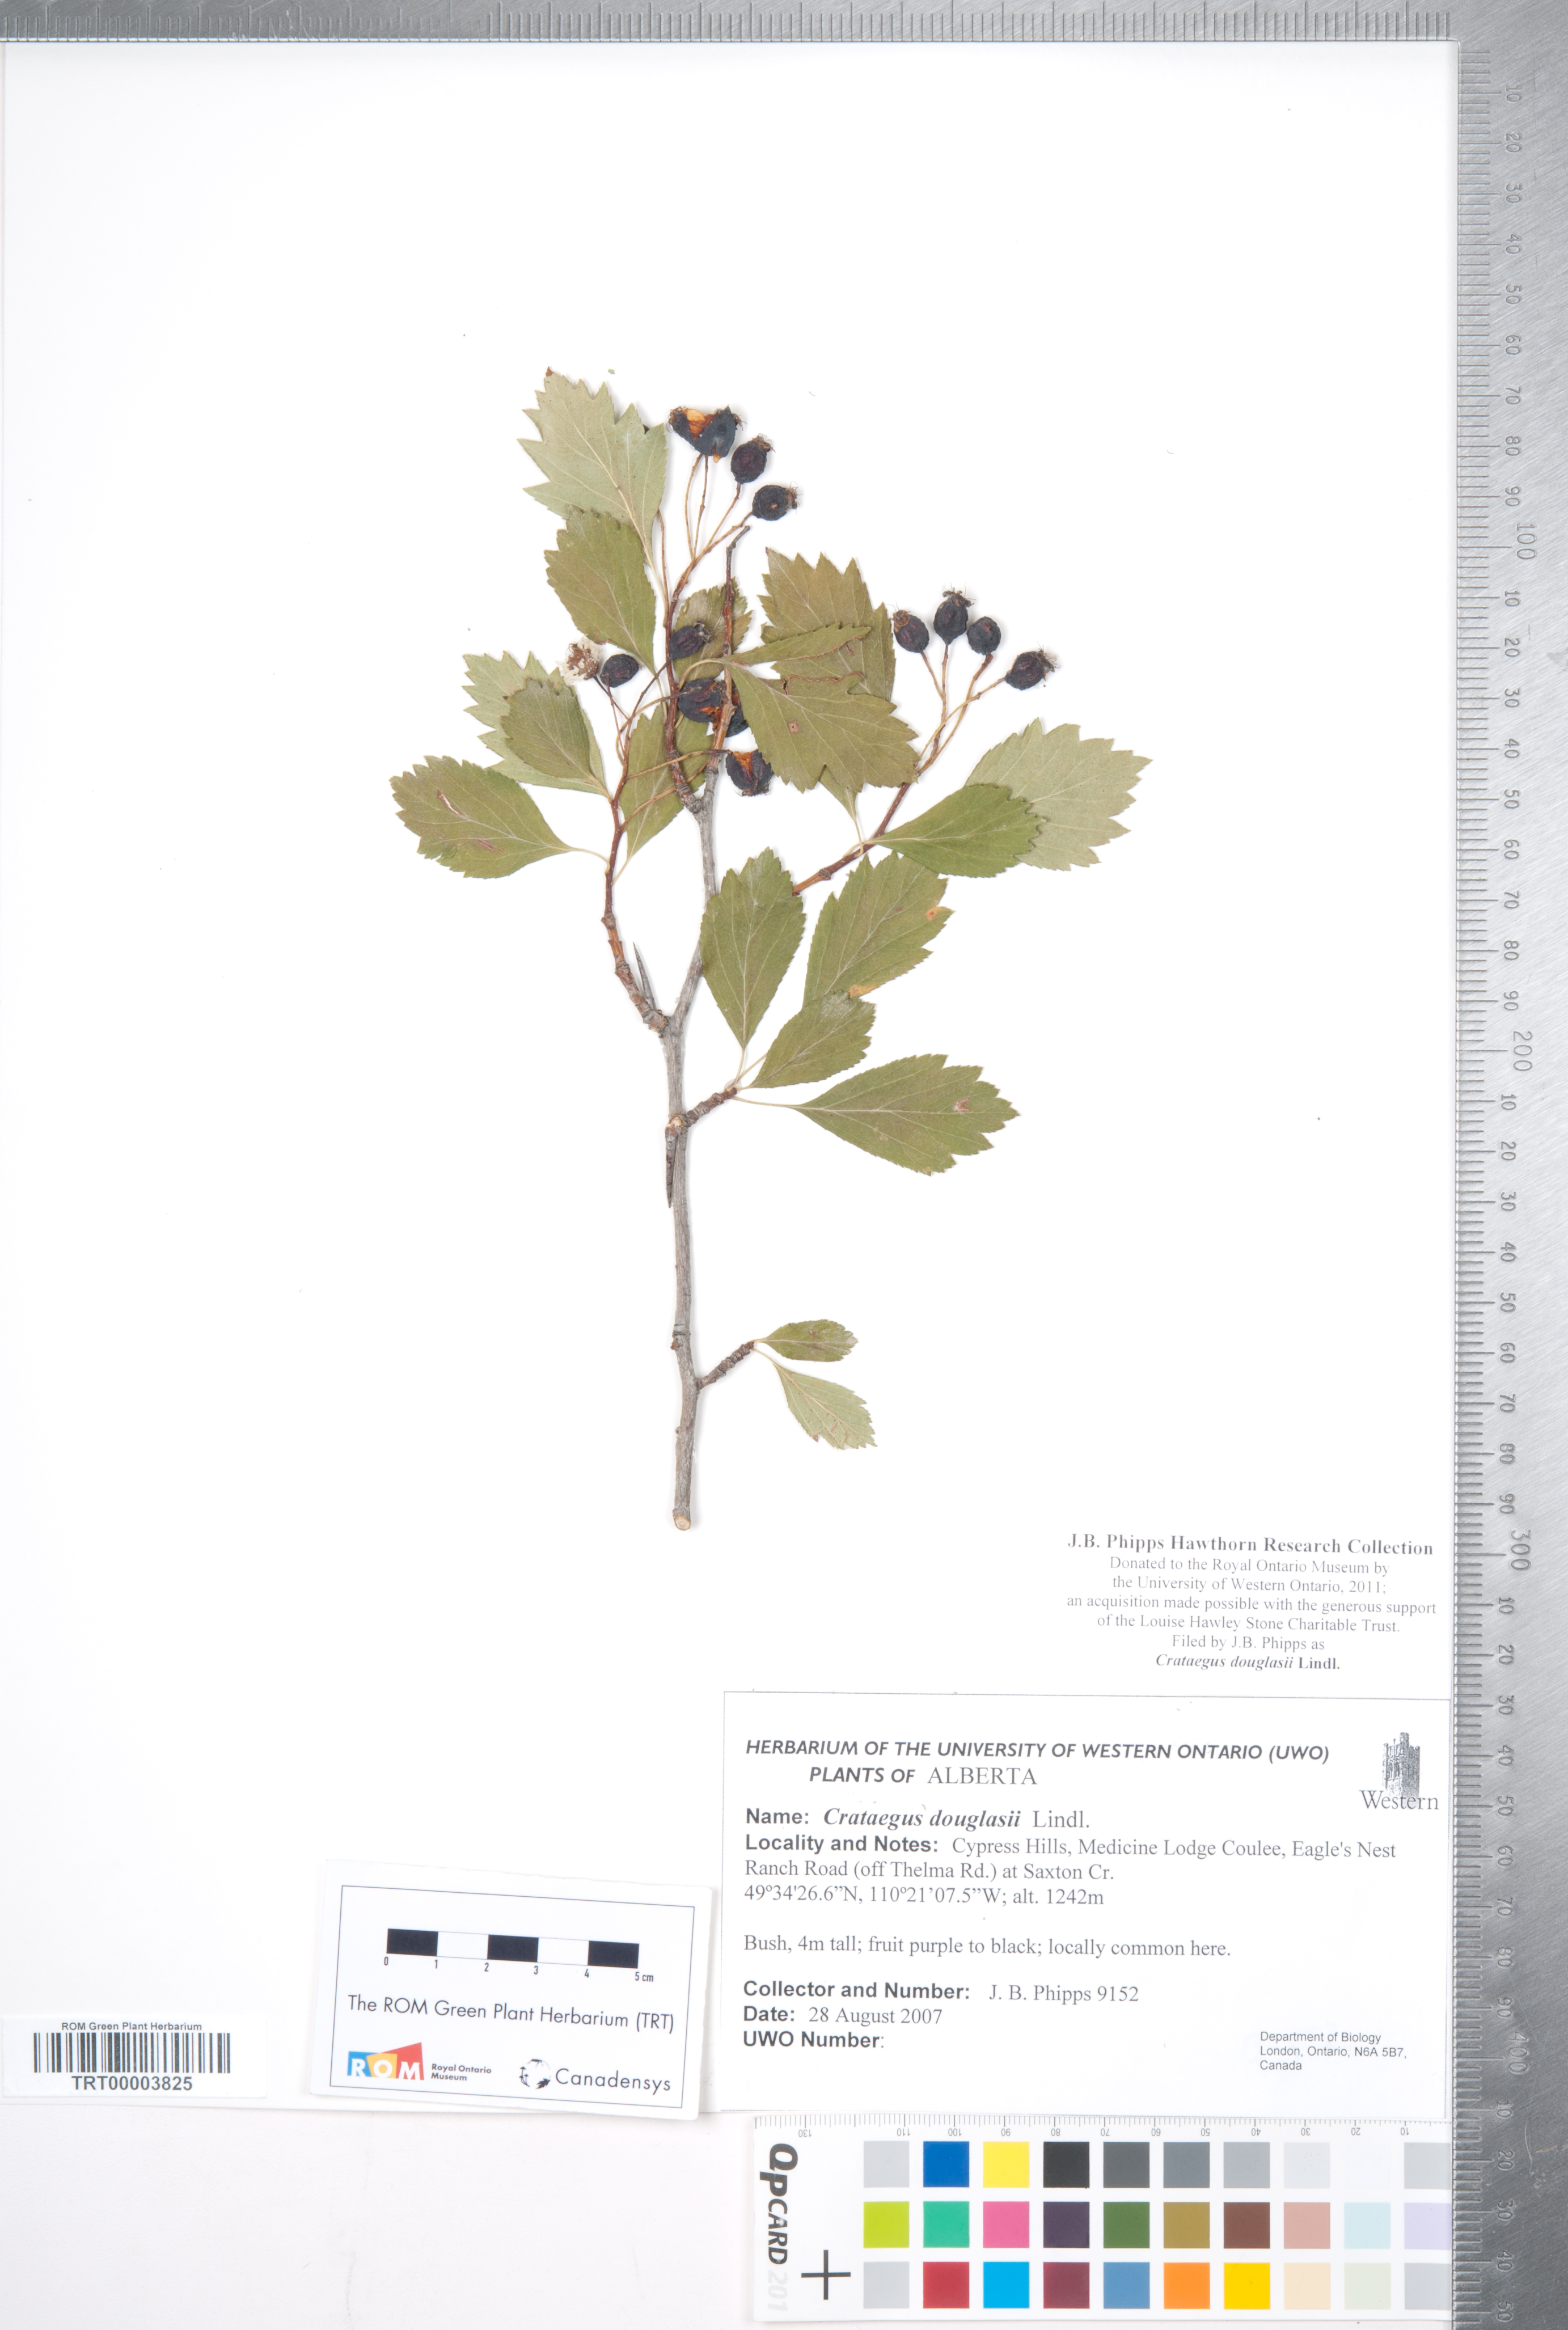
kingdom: Plantae
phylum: Tracheophyta
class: Magnoliopsida
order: Rosales
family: Rosaceae
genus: Crataegus
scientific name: Crataegus douglasii
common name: Black hawthorn
